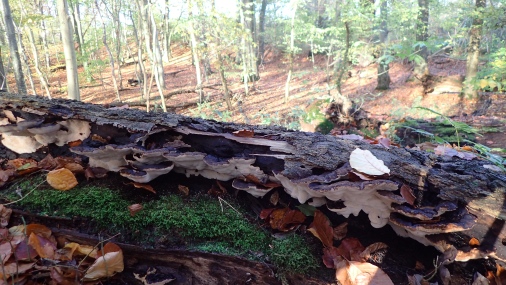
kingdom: Fungi
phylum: Basidiomycota
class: Agaricomycetes
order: Polyporales
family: Ischnodermataceae
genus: Ischnoderma
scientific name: Ischnoderma resinosum
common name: løv-tjæreporesvamp
